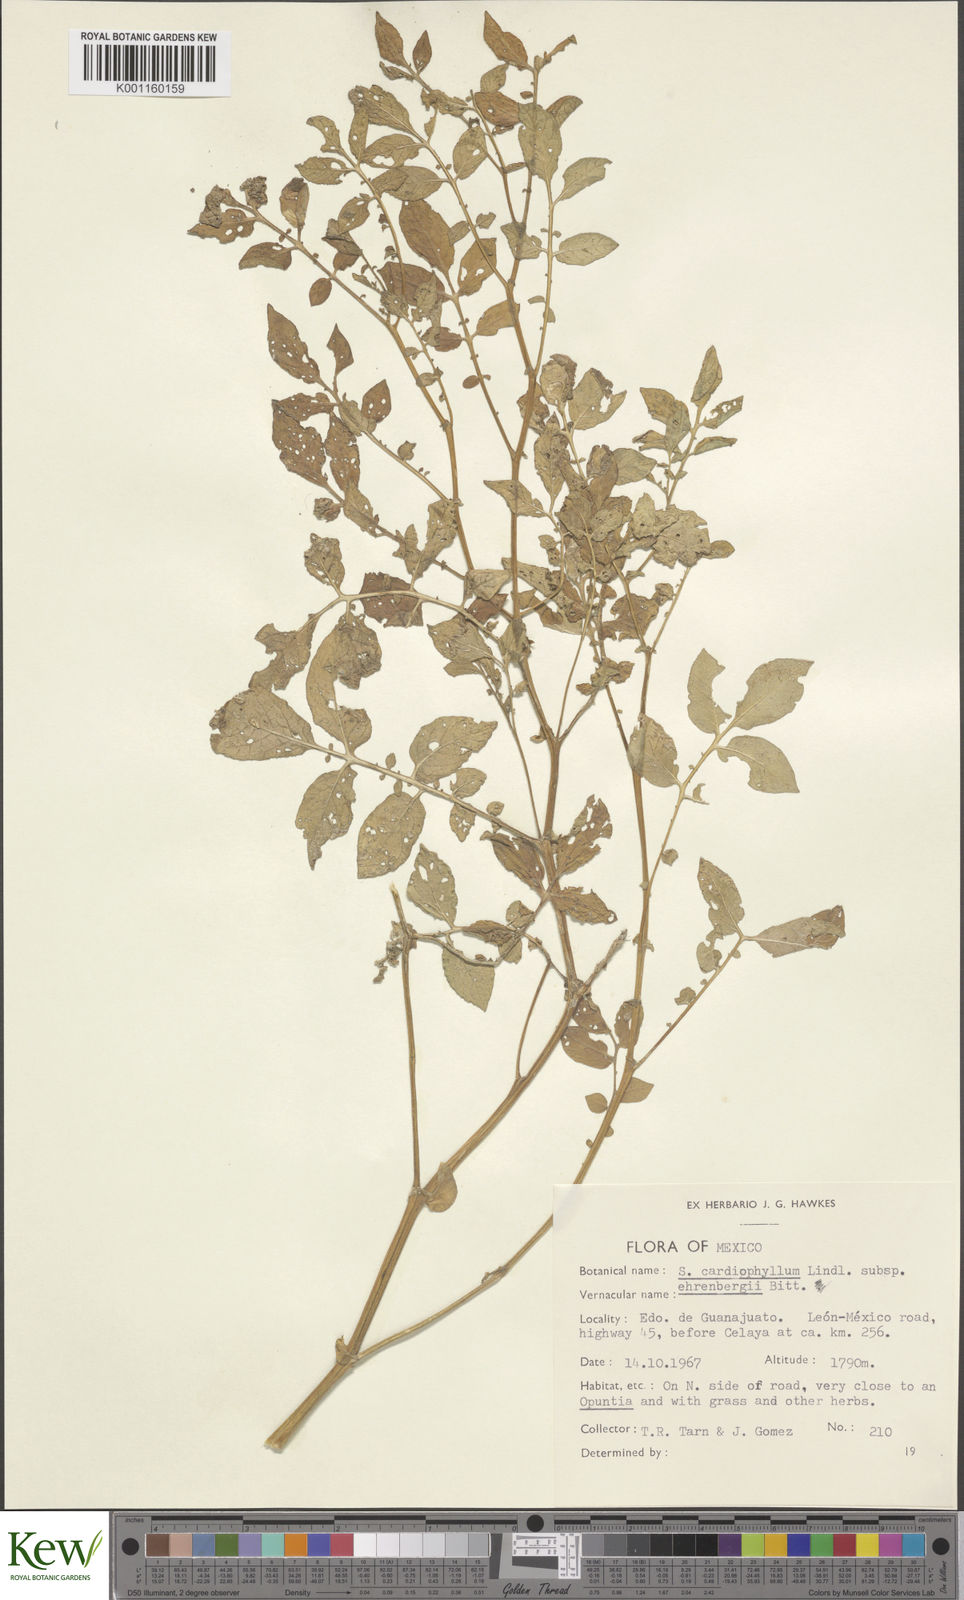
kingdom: Plantae
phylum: Tracheophyta
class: Magnoliopsida
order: Solanales
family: Solanaceae
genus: Solanum
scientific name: Solanum cardiophyllum
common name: Heartleaf horsenettle
